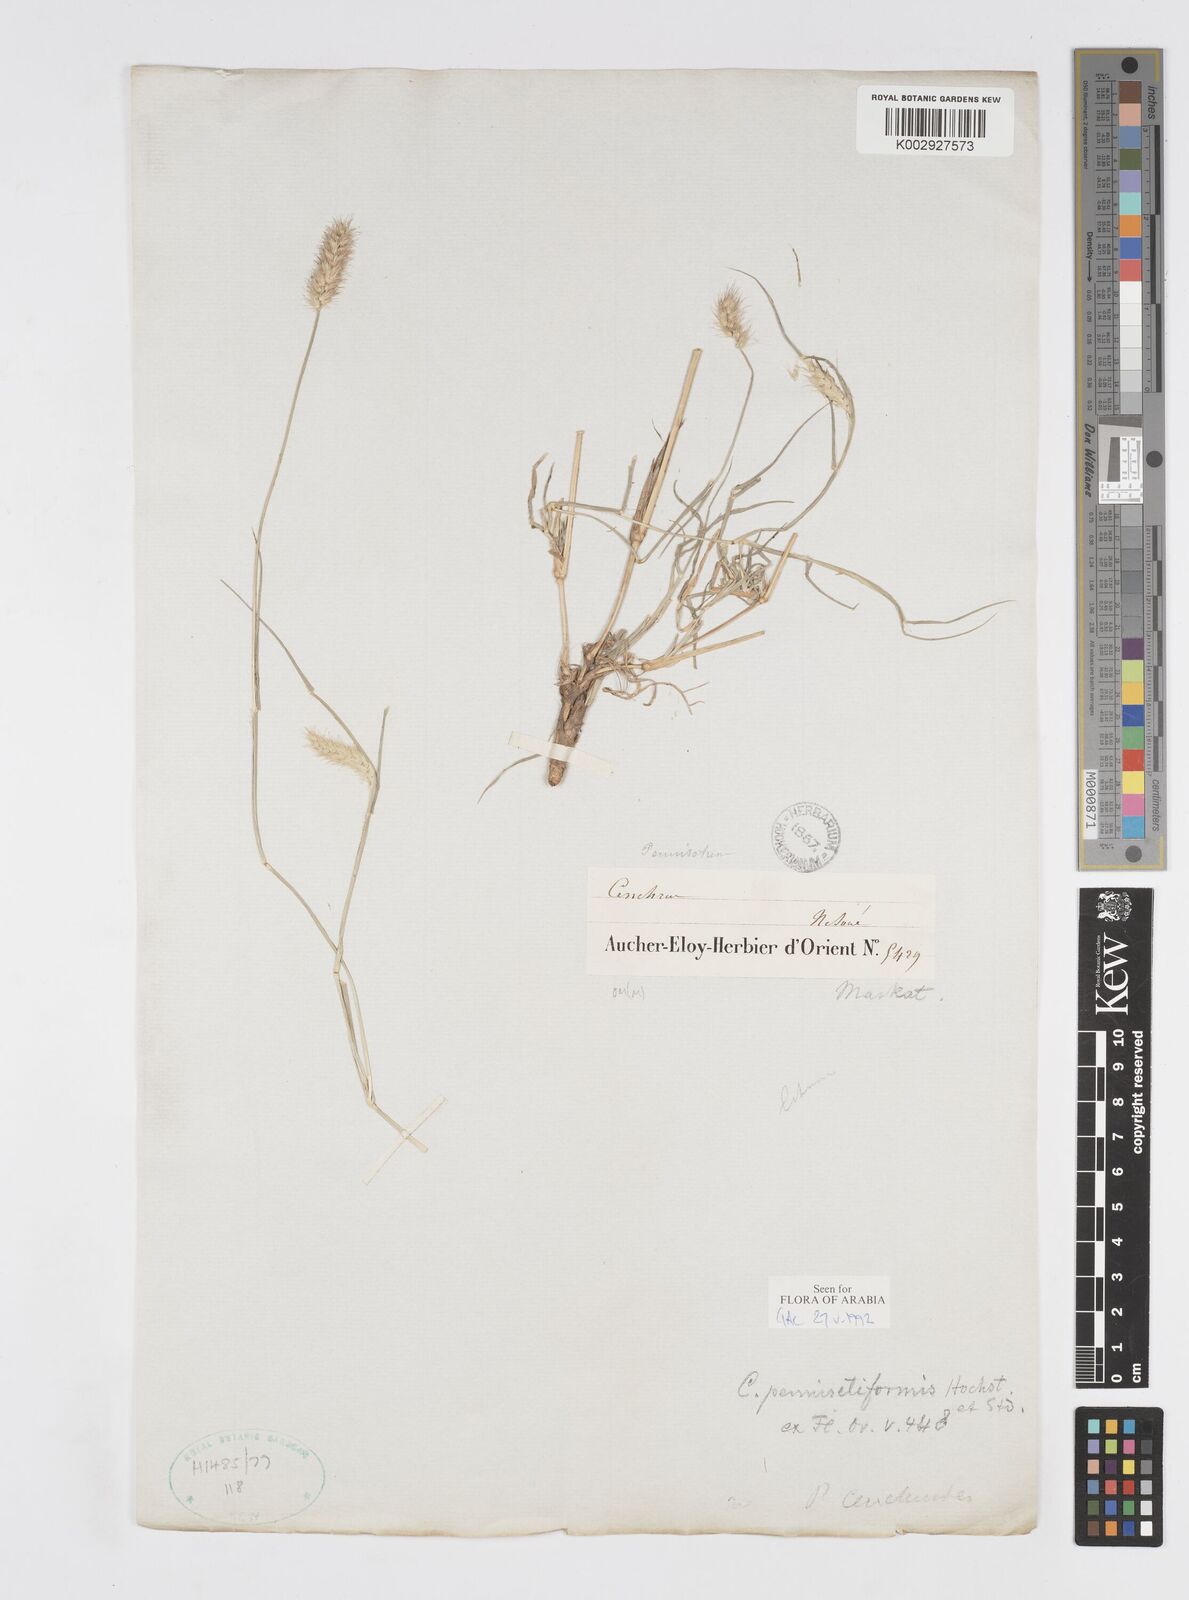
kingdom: Plantae
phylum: Tracheophyta
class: Liliopsida
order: Poales
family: Poaceae
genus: Cenchrus
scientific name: Cenchrus pennisetiformis
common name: Cloncurry
